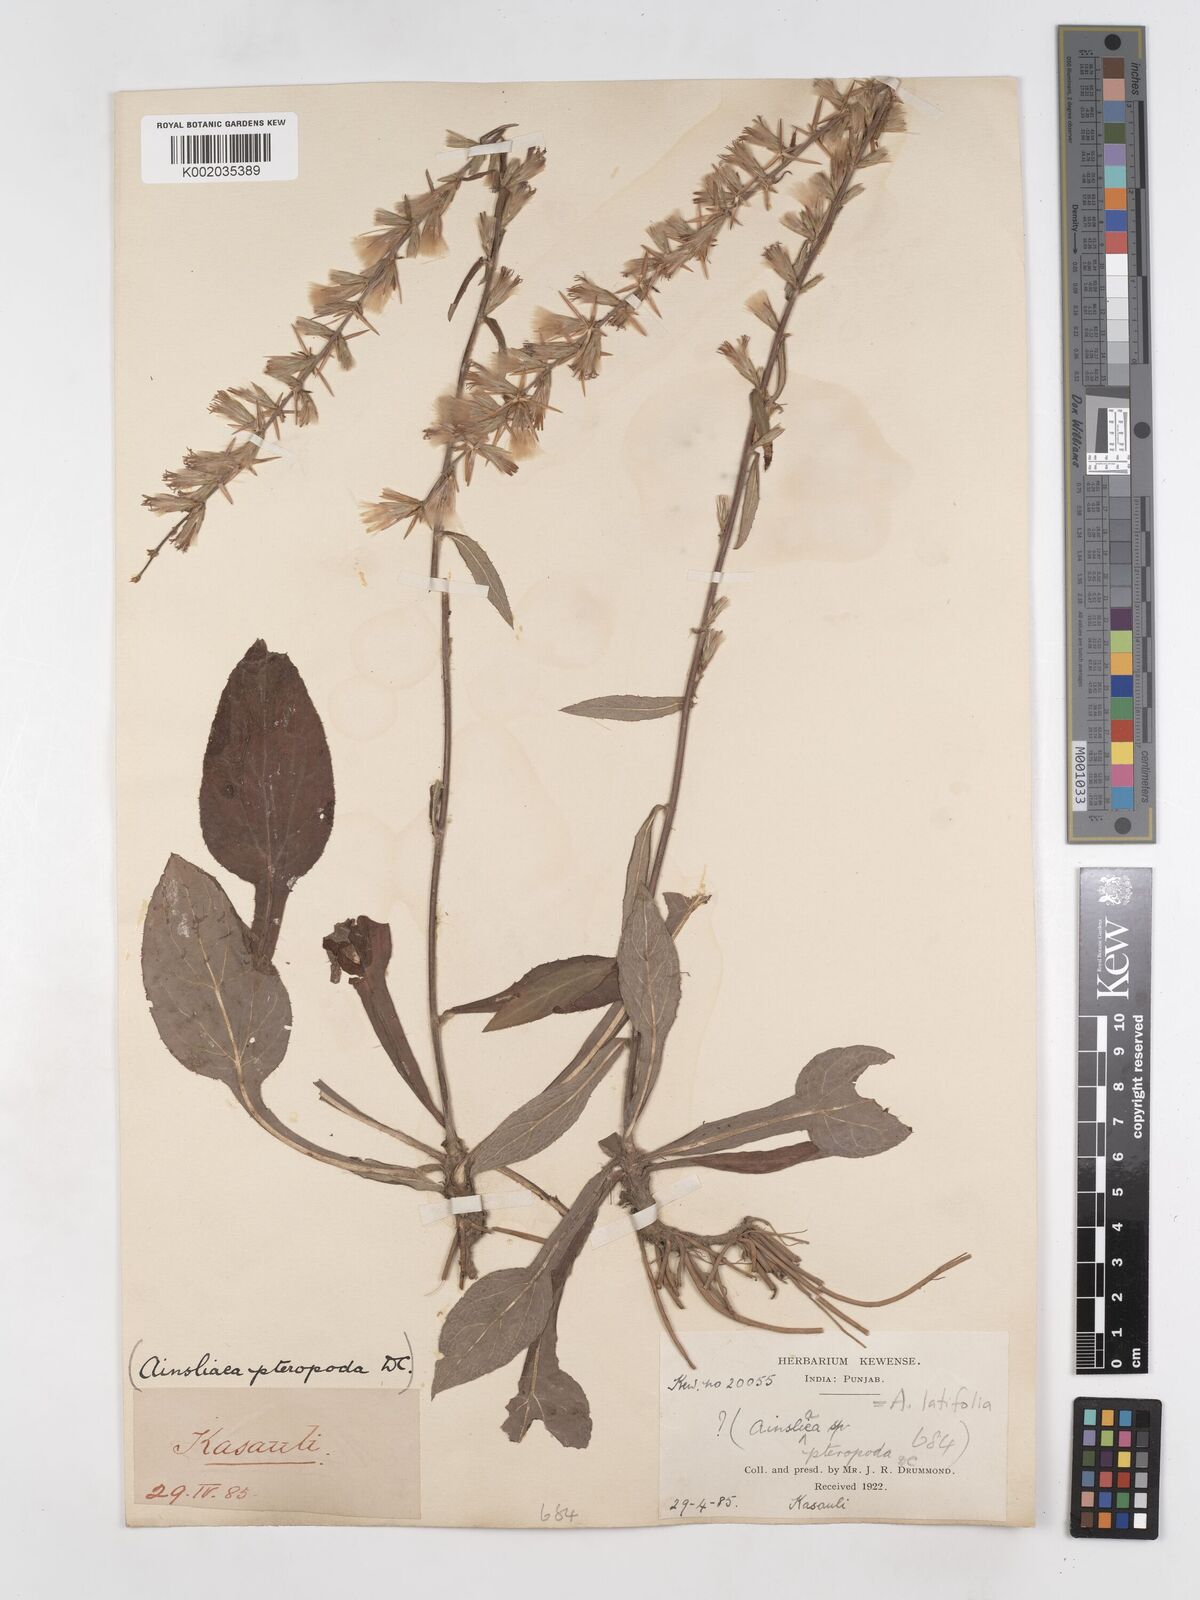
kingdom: Plantae
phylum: Tracheophyta
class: Magnoliopsida
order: Asterales
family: Asteraceae
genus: Ainsliaea
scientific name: Ainsliaea latifolia
